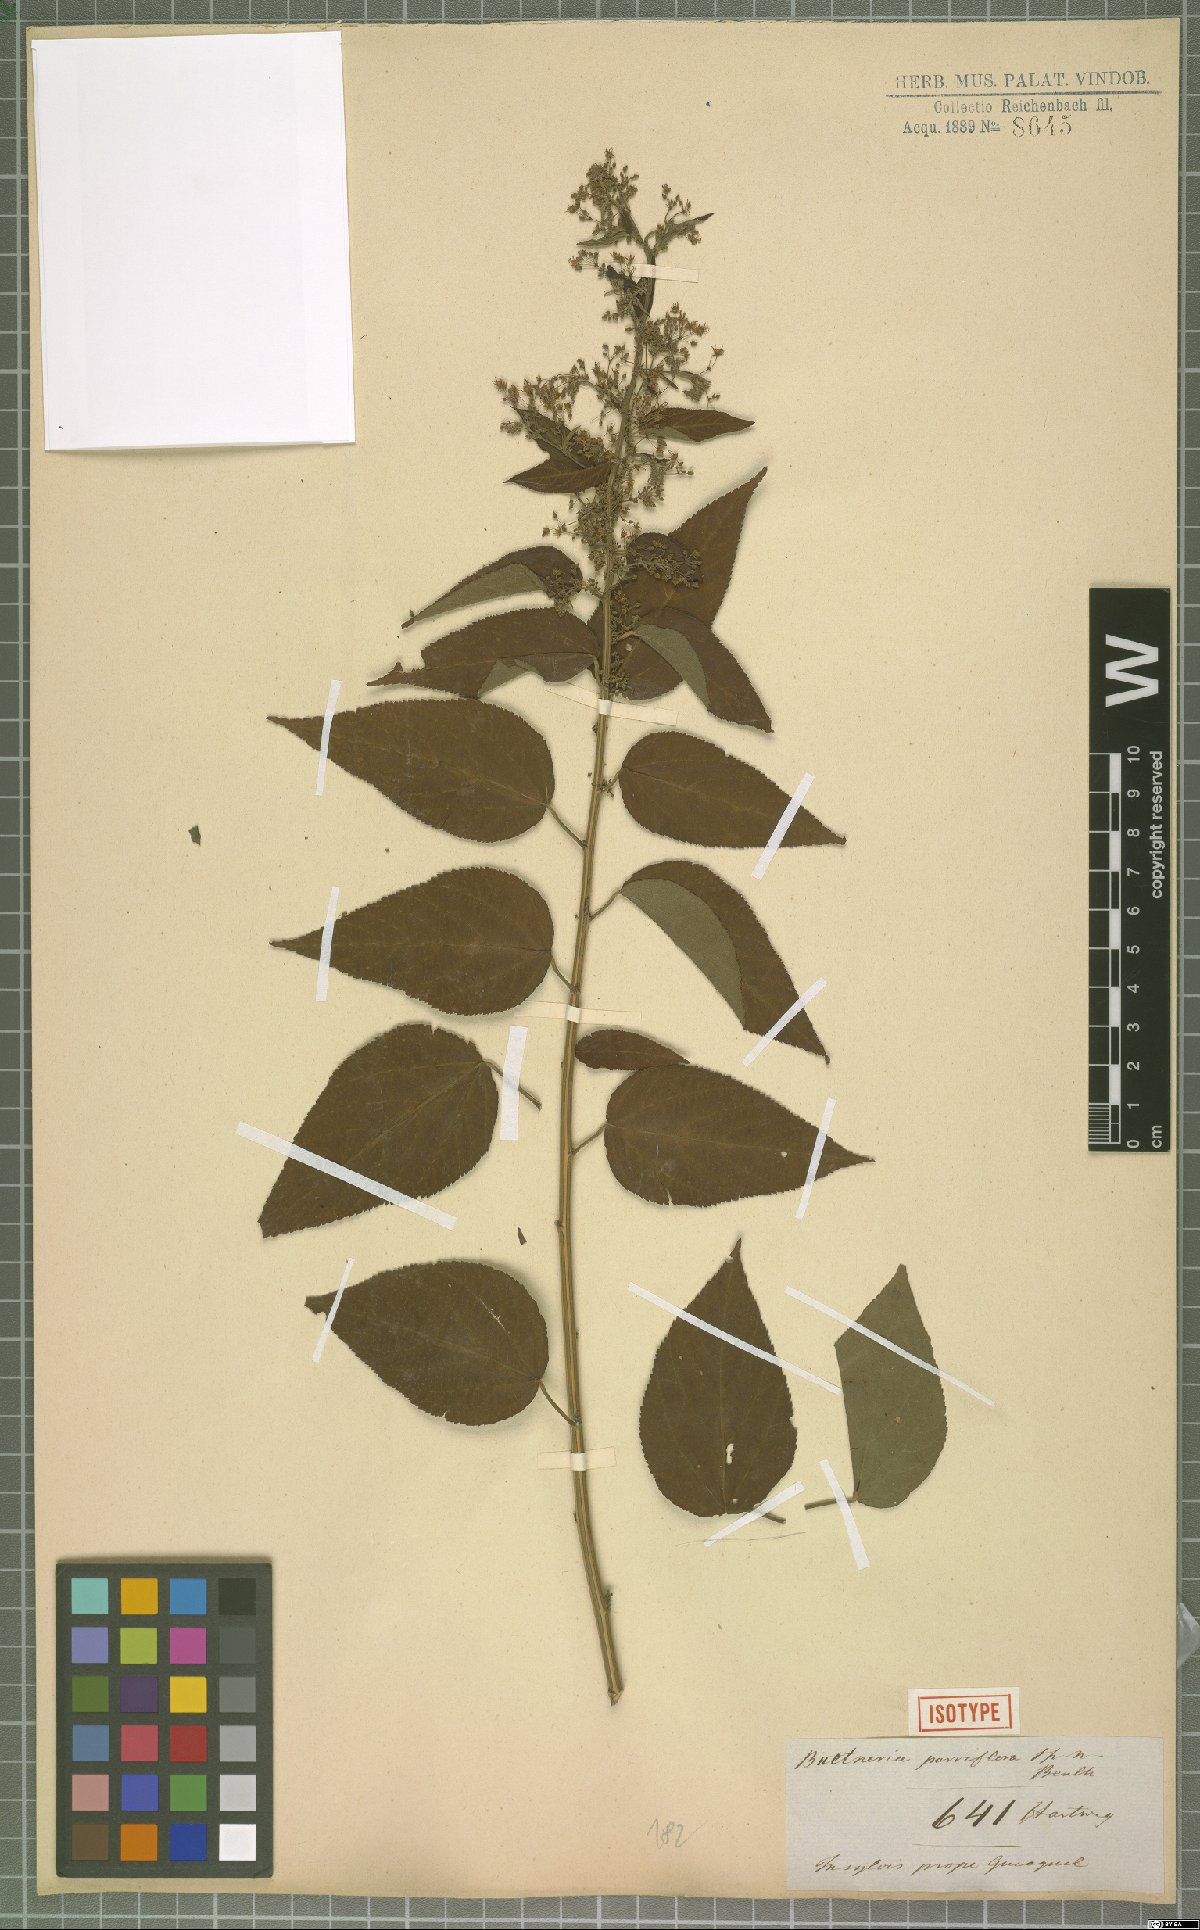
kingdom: Plantae
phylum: Tracheophyta
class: Magnoliopsida
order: Malvales
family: Malvaceae
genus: Byttneria
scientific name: Byttneria corchorifolia
